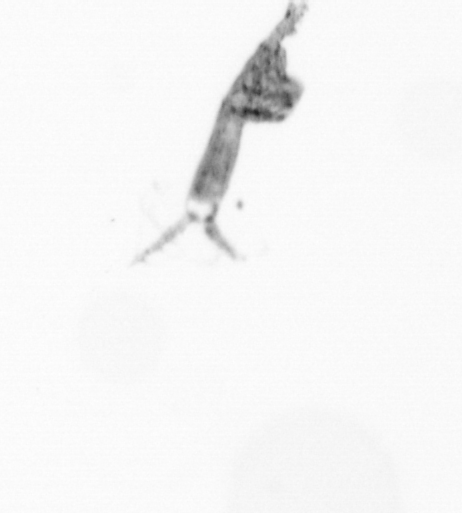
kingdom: Animalia
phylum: Arthropoda
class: Copepoda
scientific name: Copepoda
